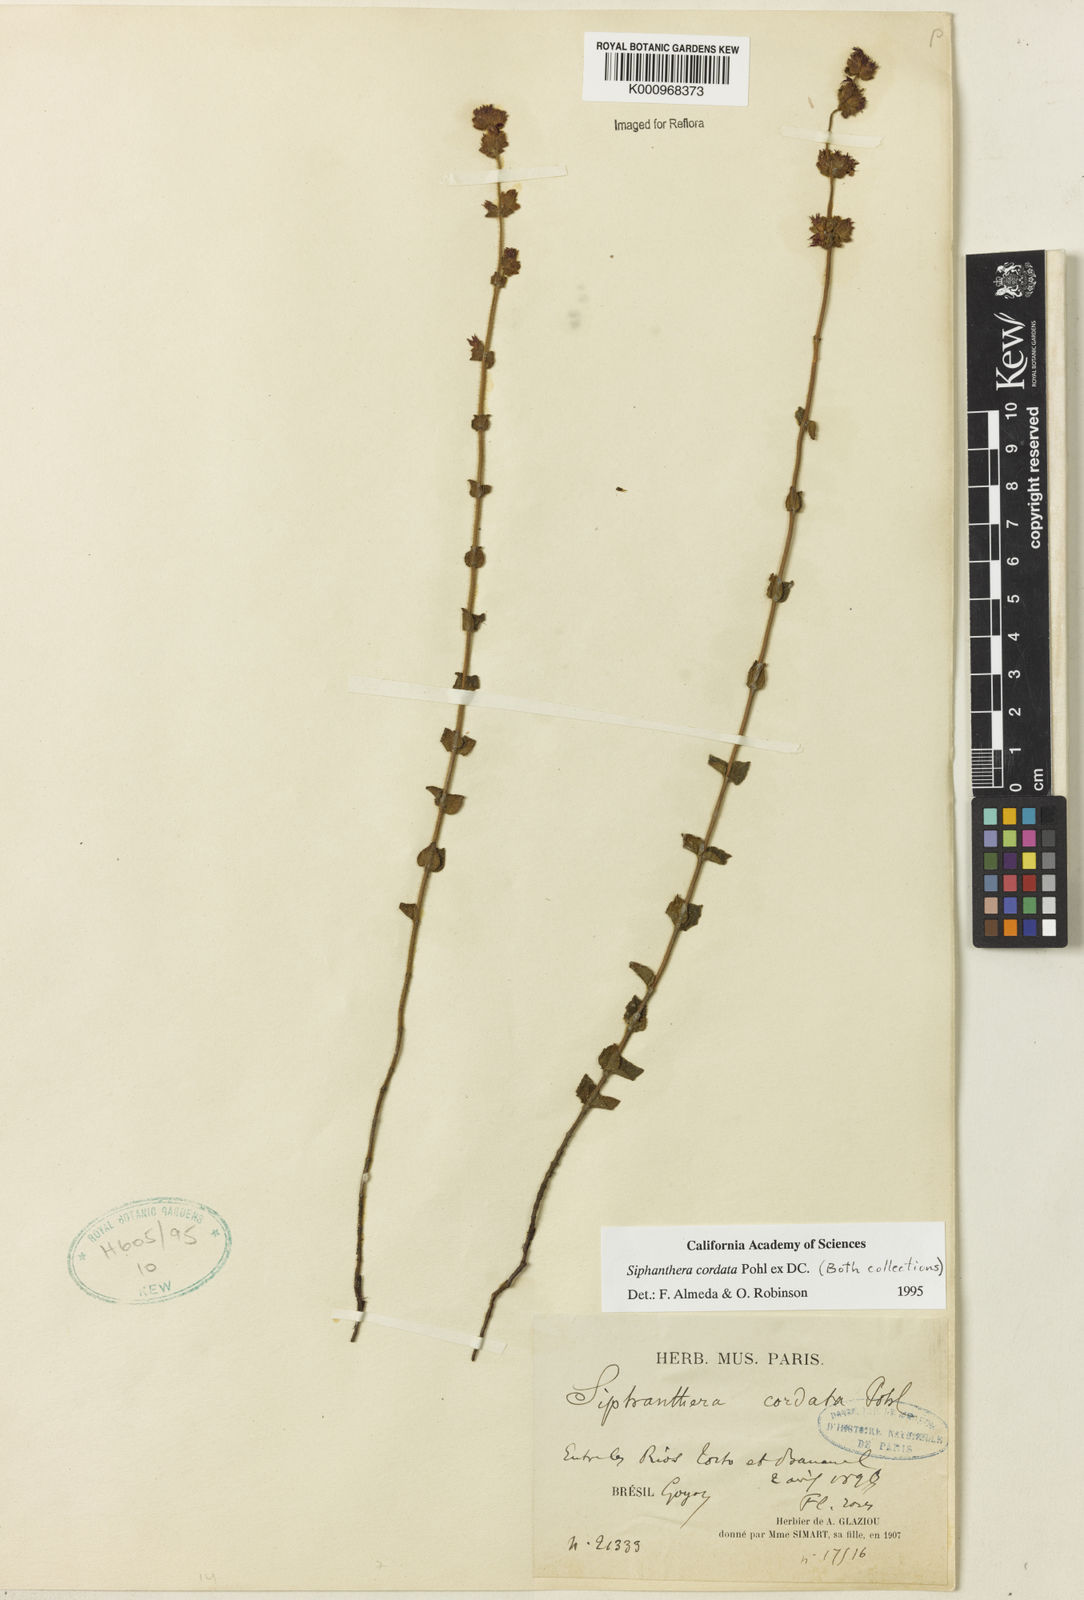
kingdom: Plantae
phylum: Tracheophyta
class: Magnoliopsida
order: Myrtales
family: Melastomataceae
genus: Siphanthera
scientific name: Siphanthera
